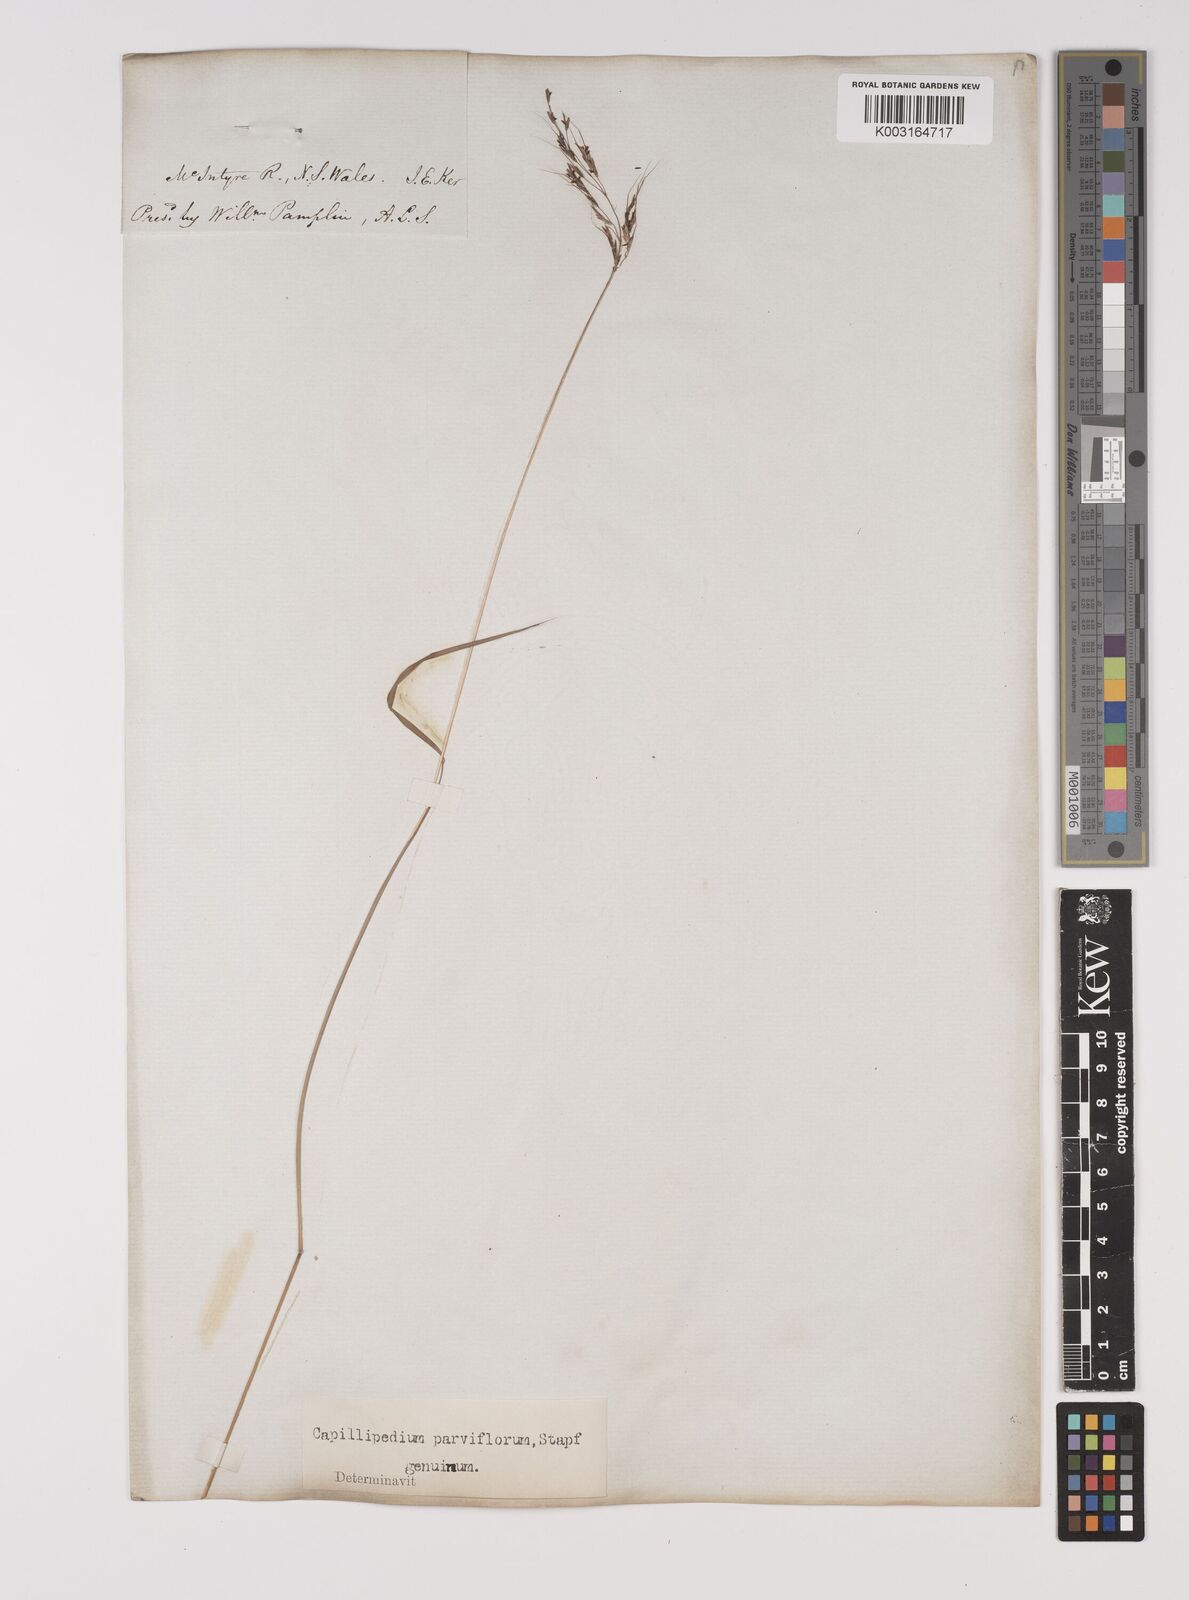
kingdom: Plantae
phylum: Tracheophyta
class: Liliopsida
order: Poales
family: Poaceae
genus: Capillipedium
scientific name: Capillipedium parviflorum
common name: Golden-beard
